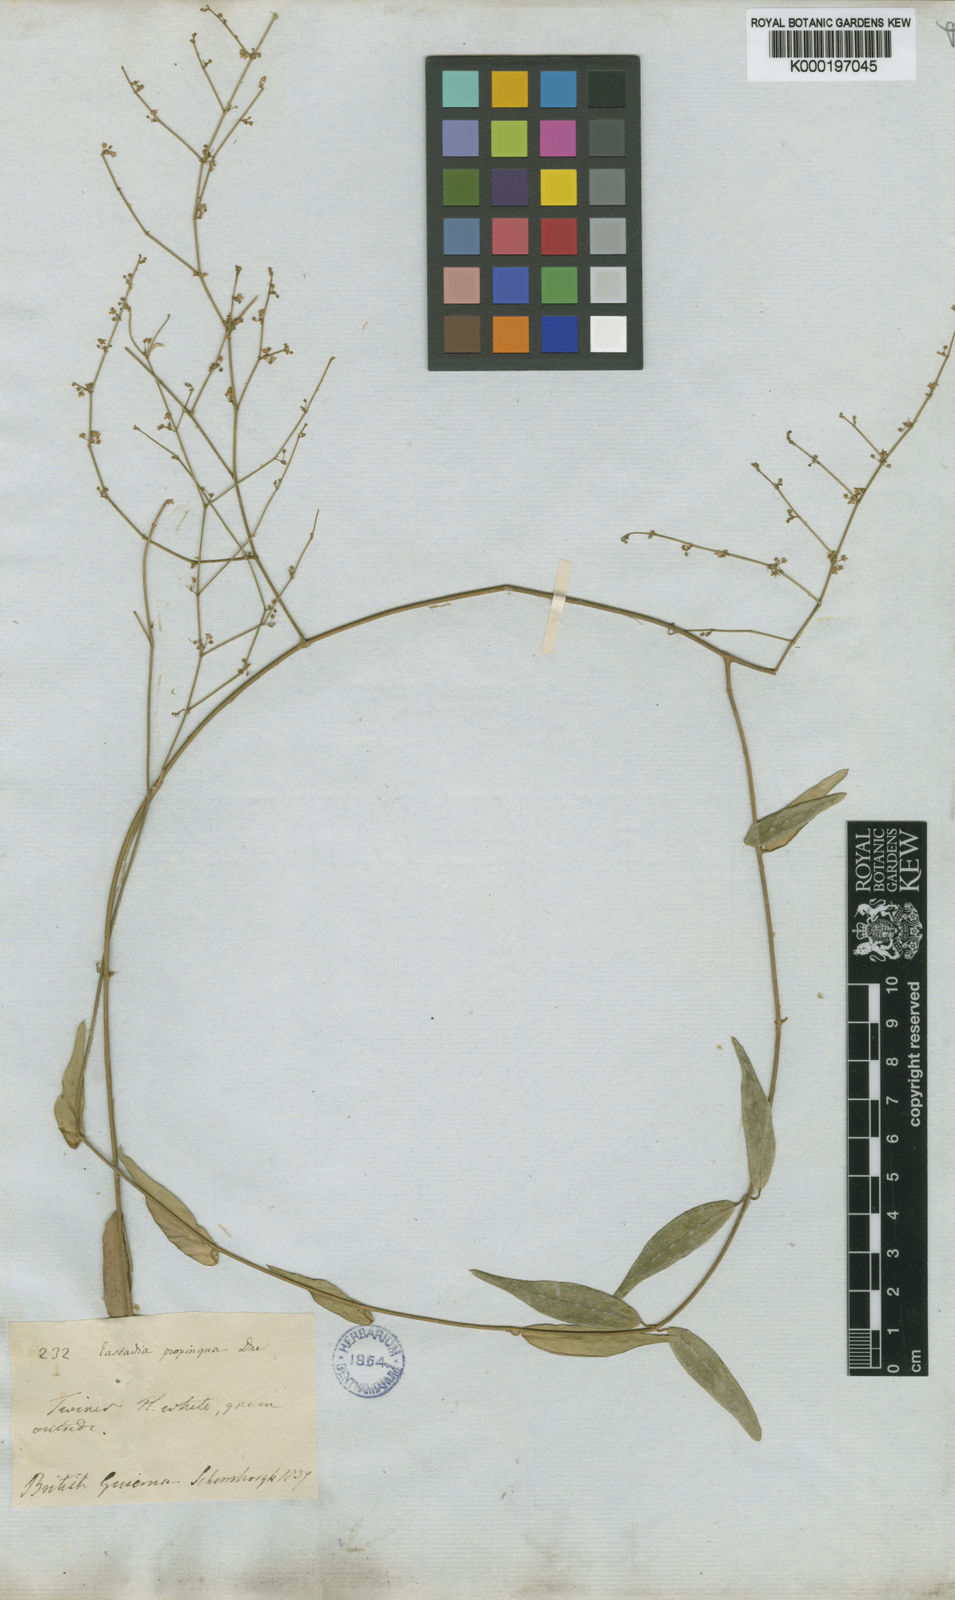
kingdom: Plantae
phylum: Tracheophyta
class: Magnoliopsida
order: Gentianales
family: Apocynaceae
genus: Tassadia
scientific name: Tassadia propinqua
